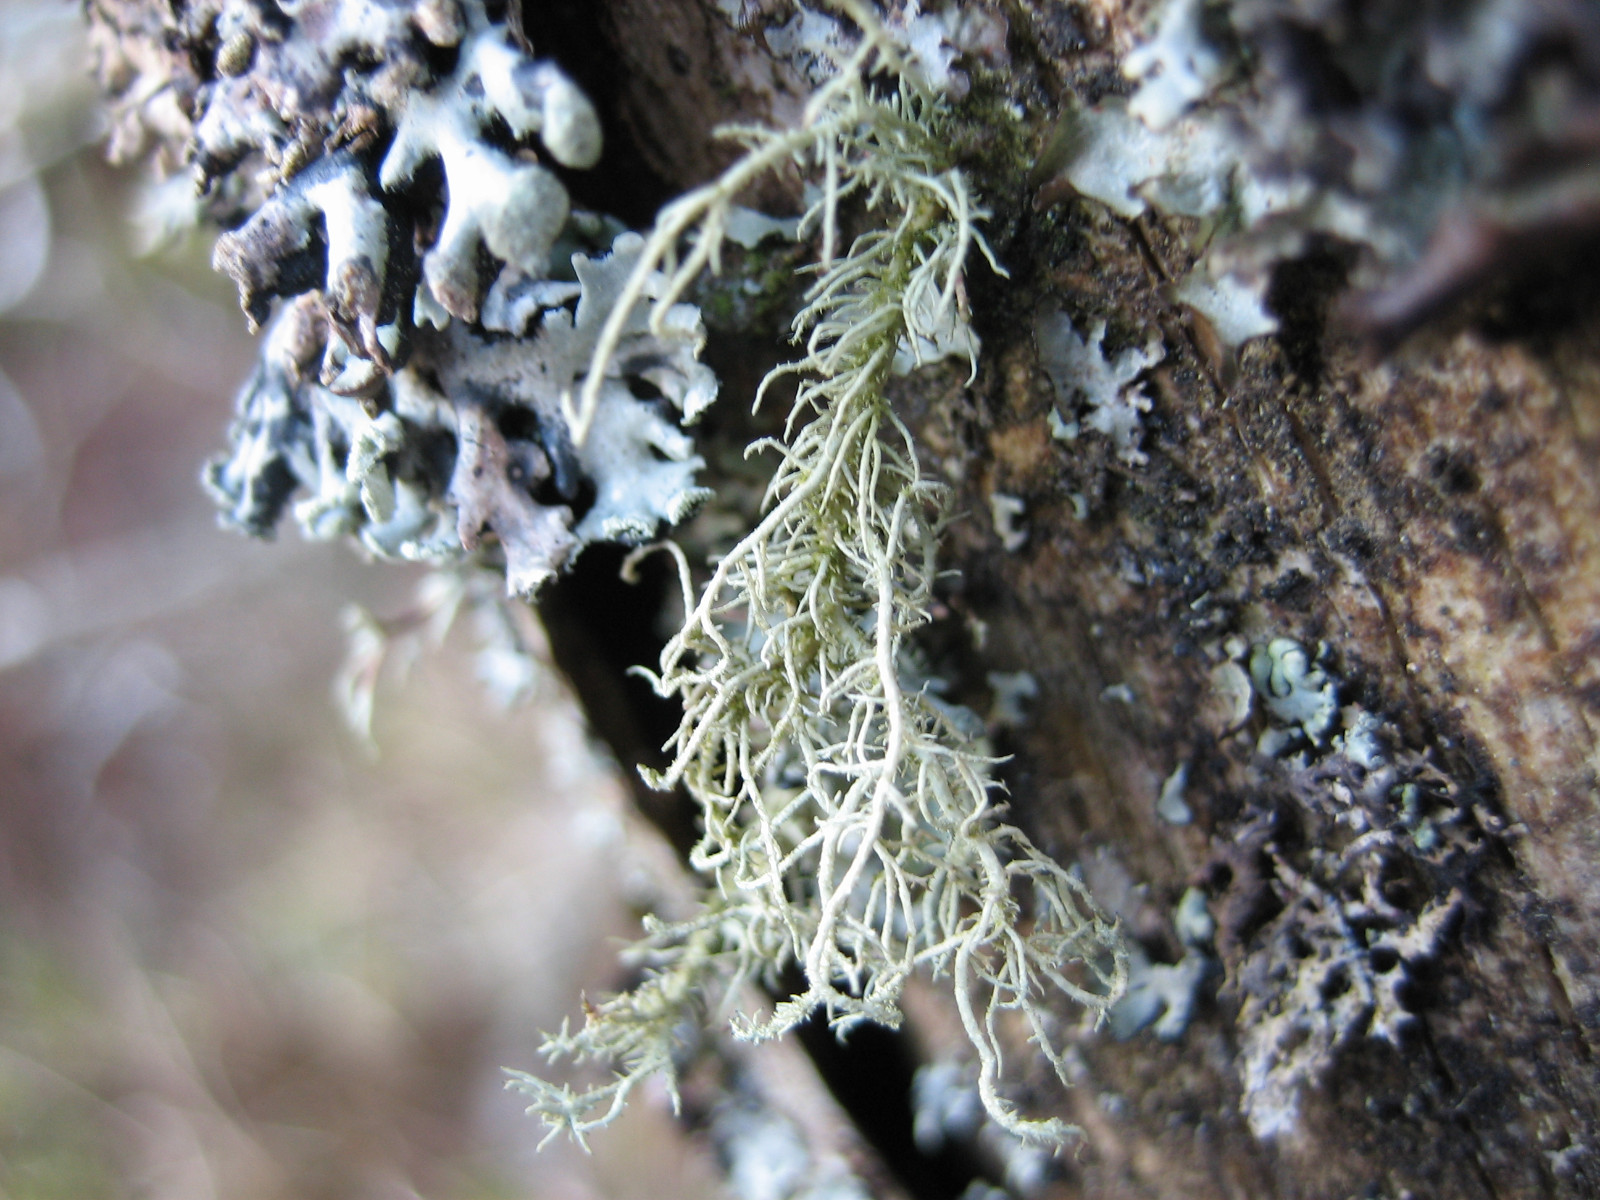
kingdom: Fungi
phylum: Ascomycota
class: Lecanoromycetes
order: Lecanorales
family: Parmeliaceae
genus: Usnea
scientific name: Usnea hirta
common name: liden skæglav
